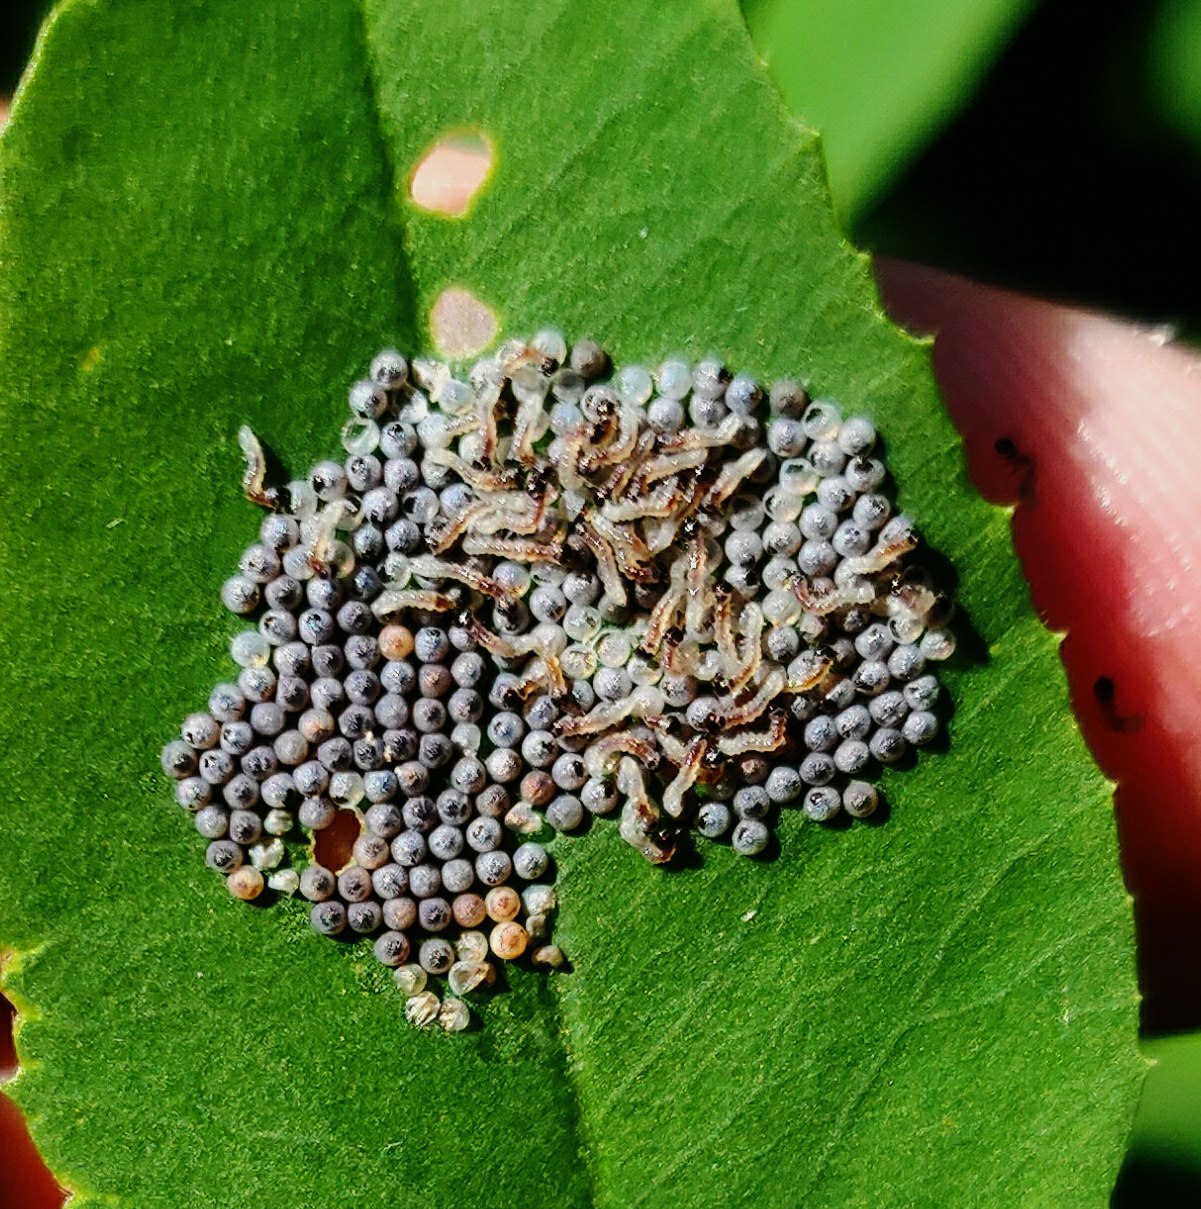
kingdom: Animalia
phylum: Arthropoda
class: Insecta
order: Lepidoptera
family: Noctuidae
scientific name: Noctuidae
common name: Ugler
